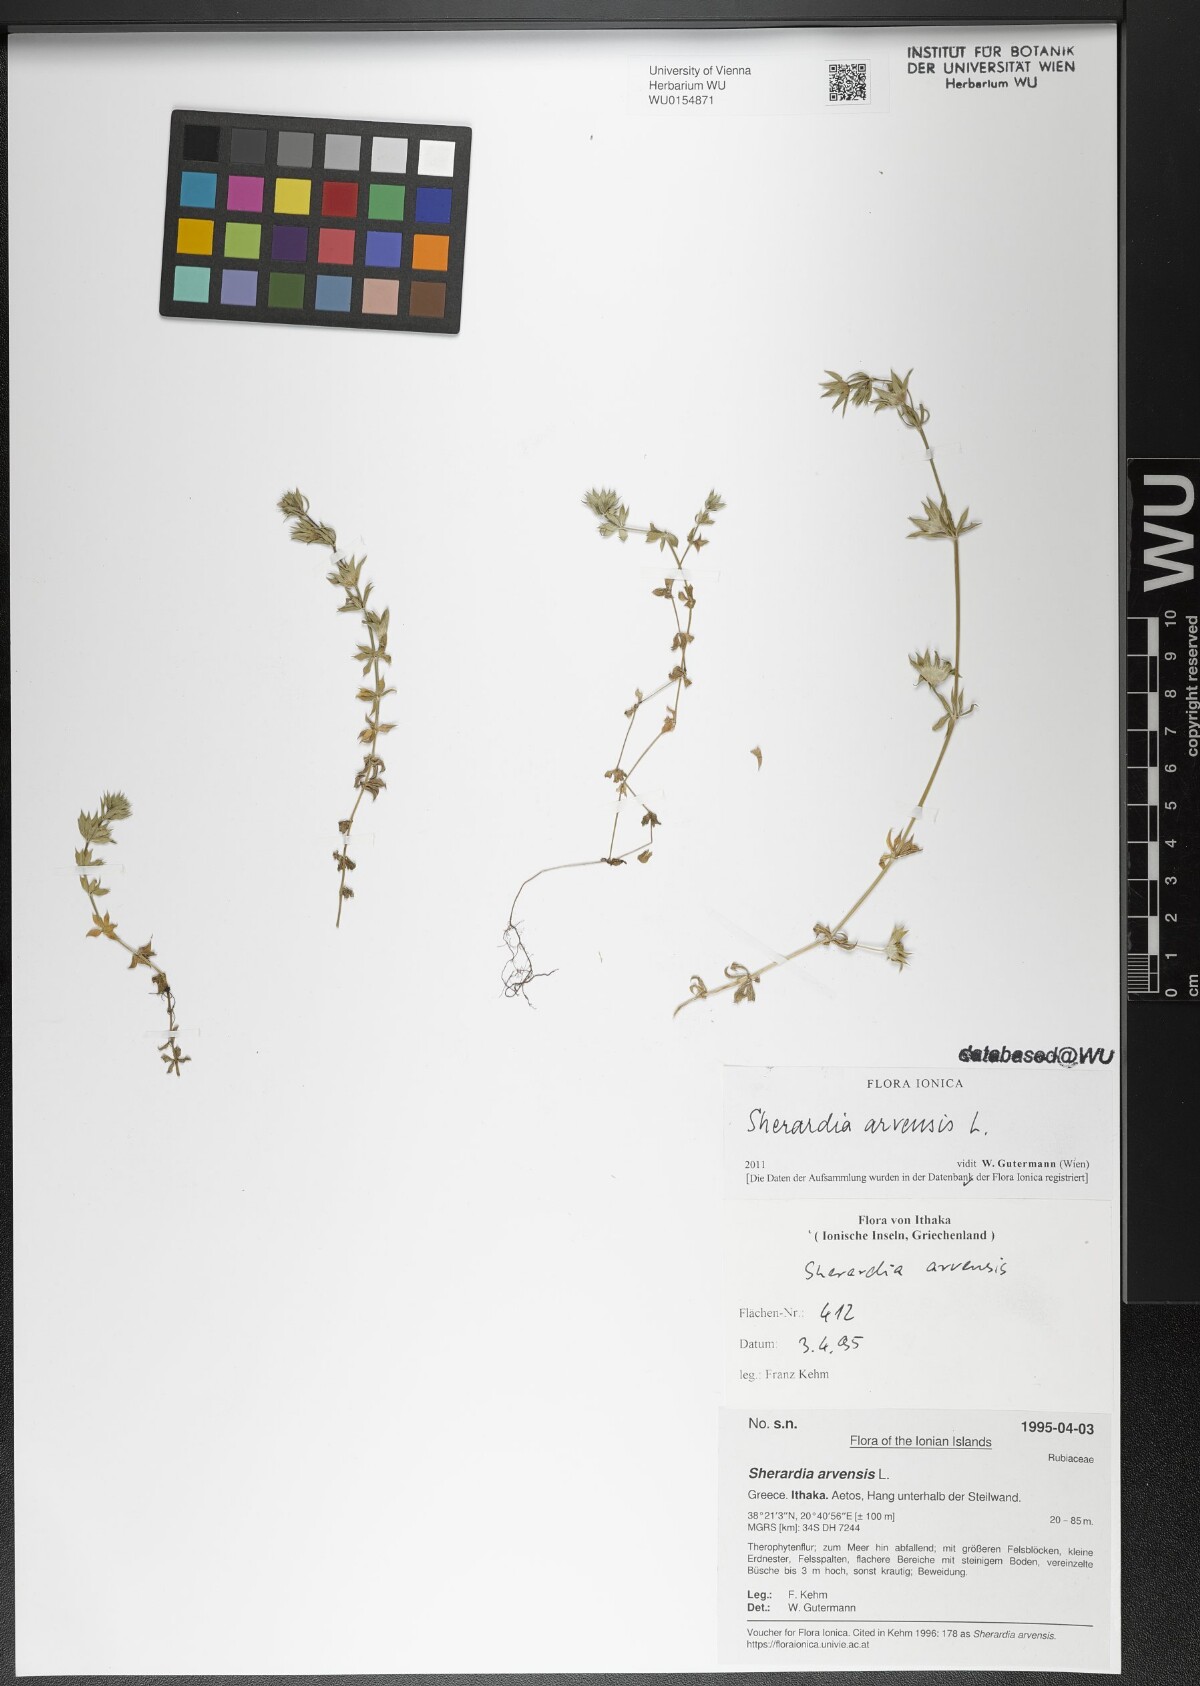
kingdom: Plantae
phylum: Tracheophyta
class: Magnoliopsida
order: Gentianales
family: Rubiaceae
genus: Sherardia
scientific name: Sherardia arvensis
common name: Field madder
